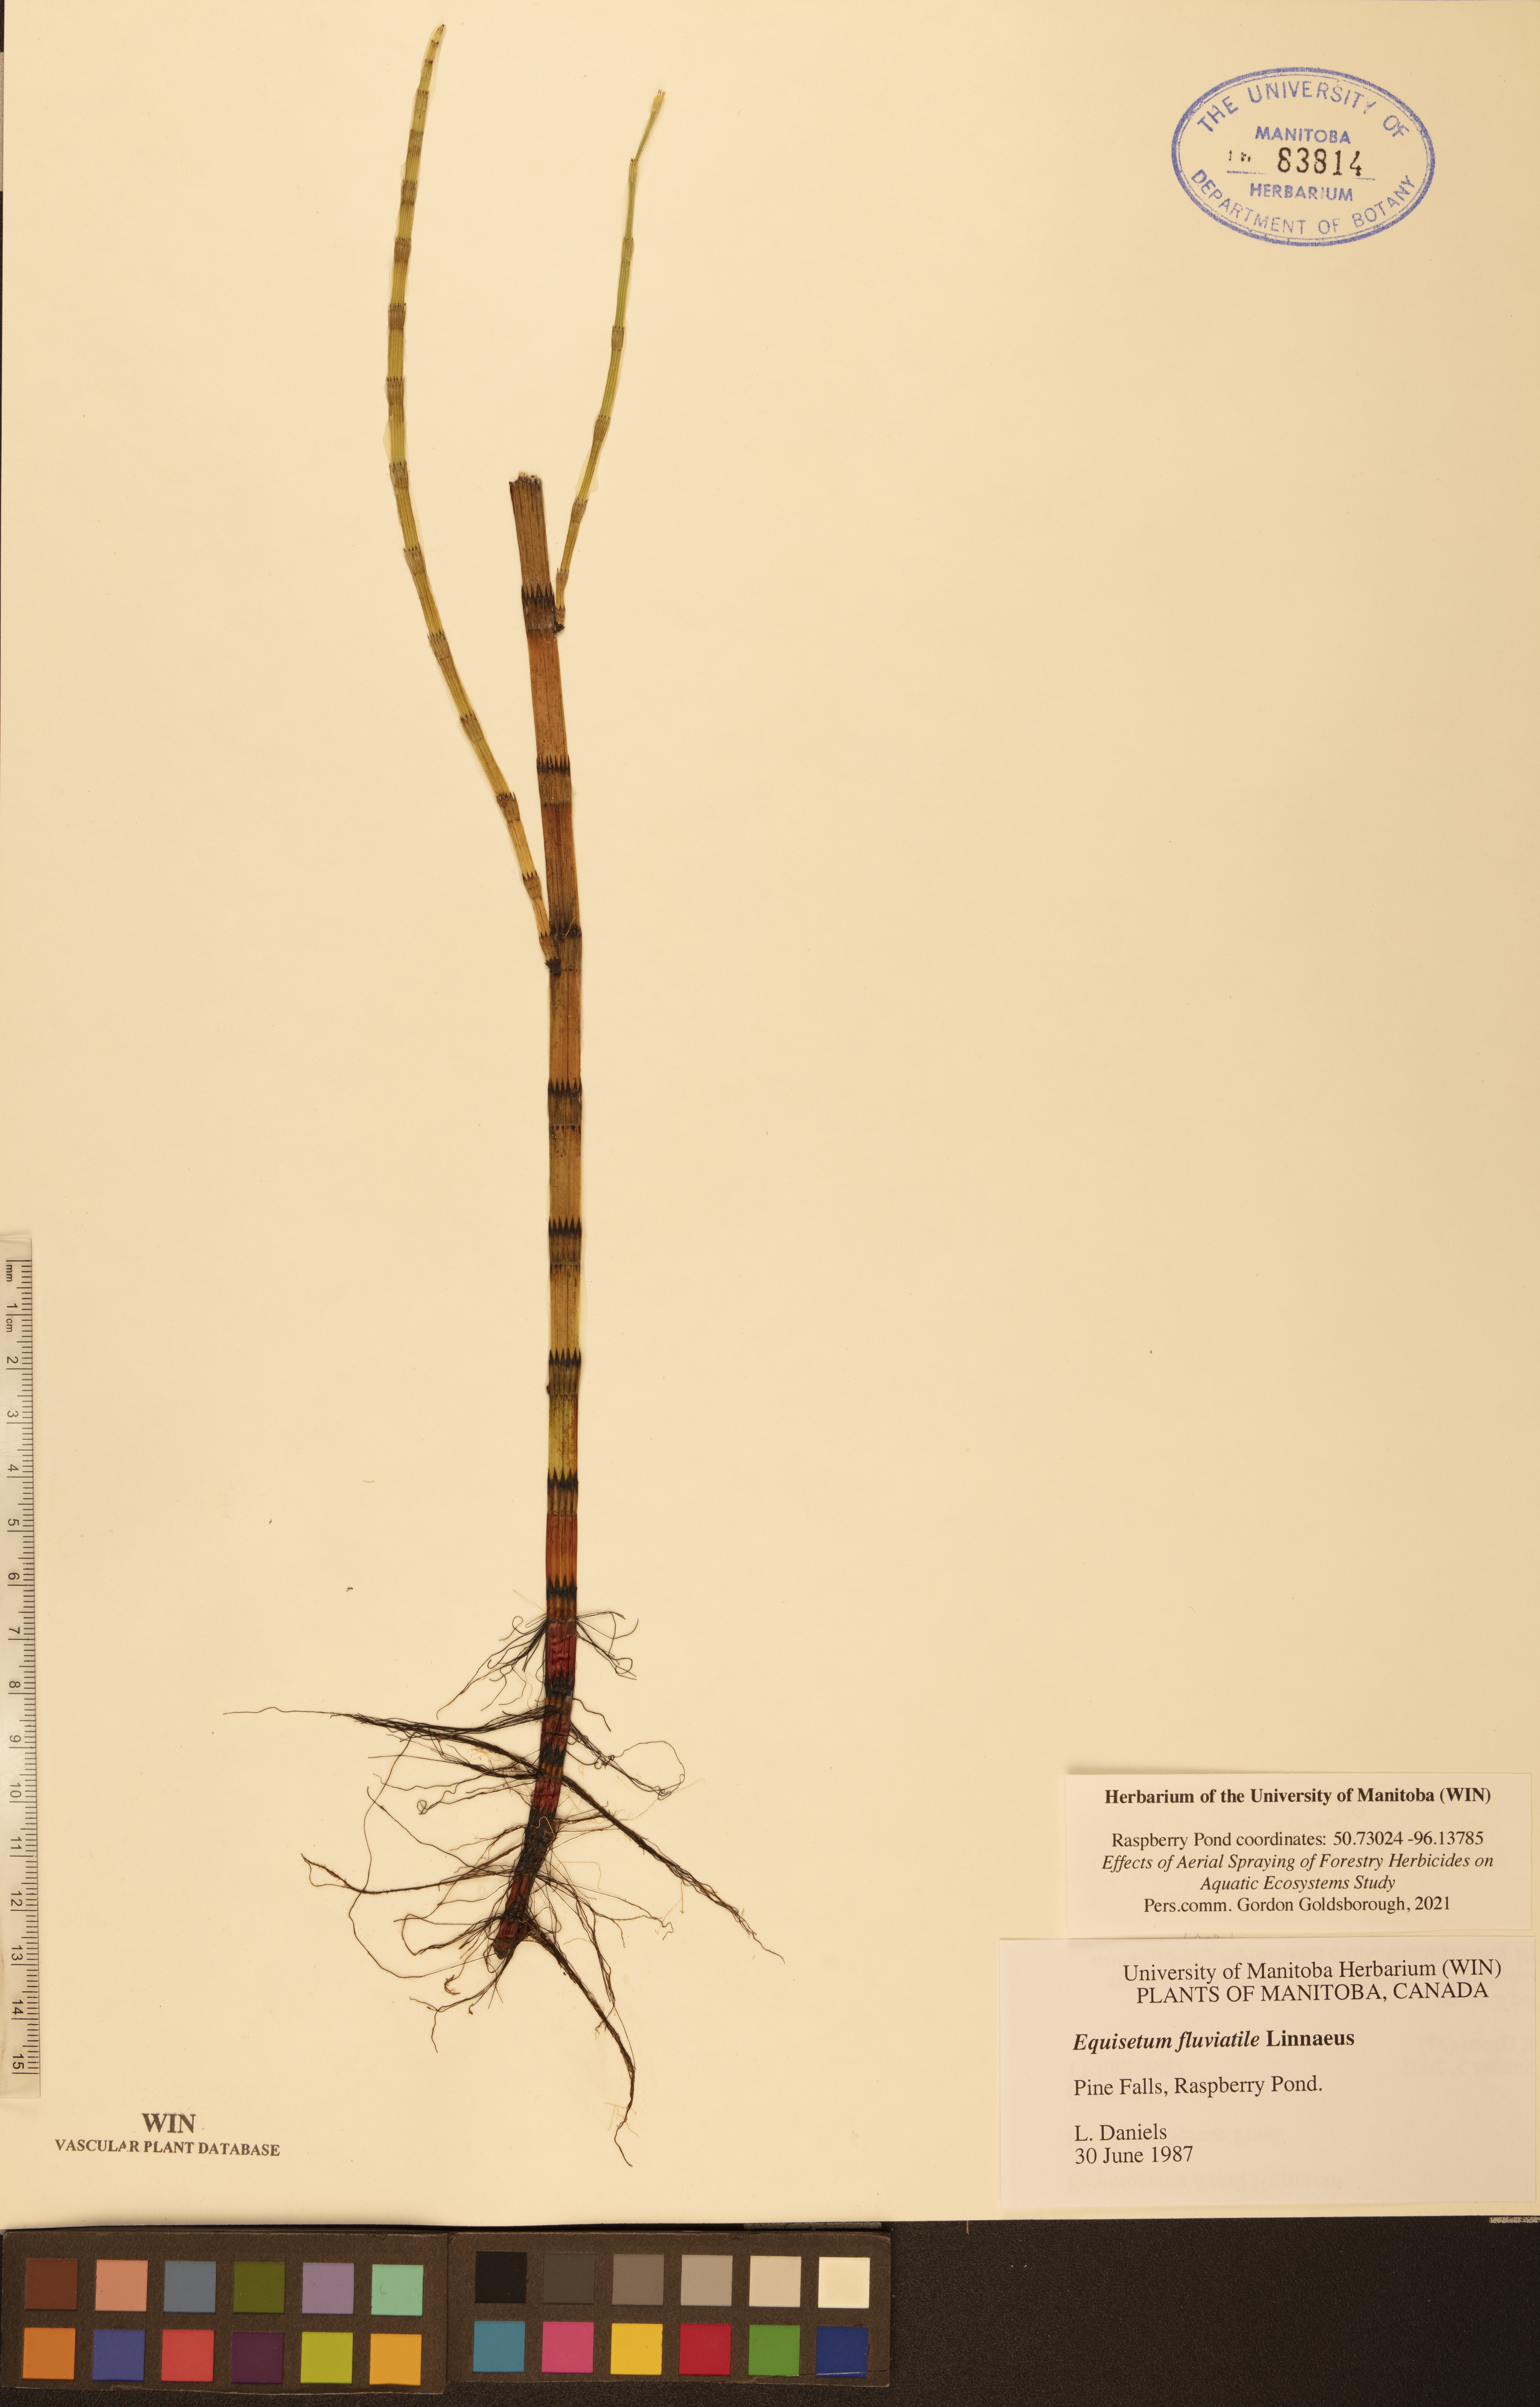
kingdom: Plantae
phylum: Tracheophyta
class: Polypodiopsida
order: Equisetales
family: Equisetaceae
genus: Equisetum
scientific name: Equisetum fluviatile
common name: Water horsetail
